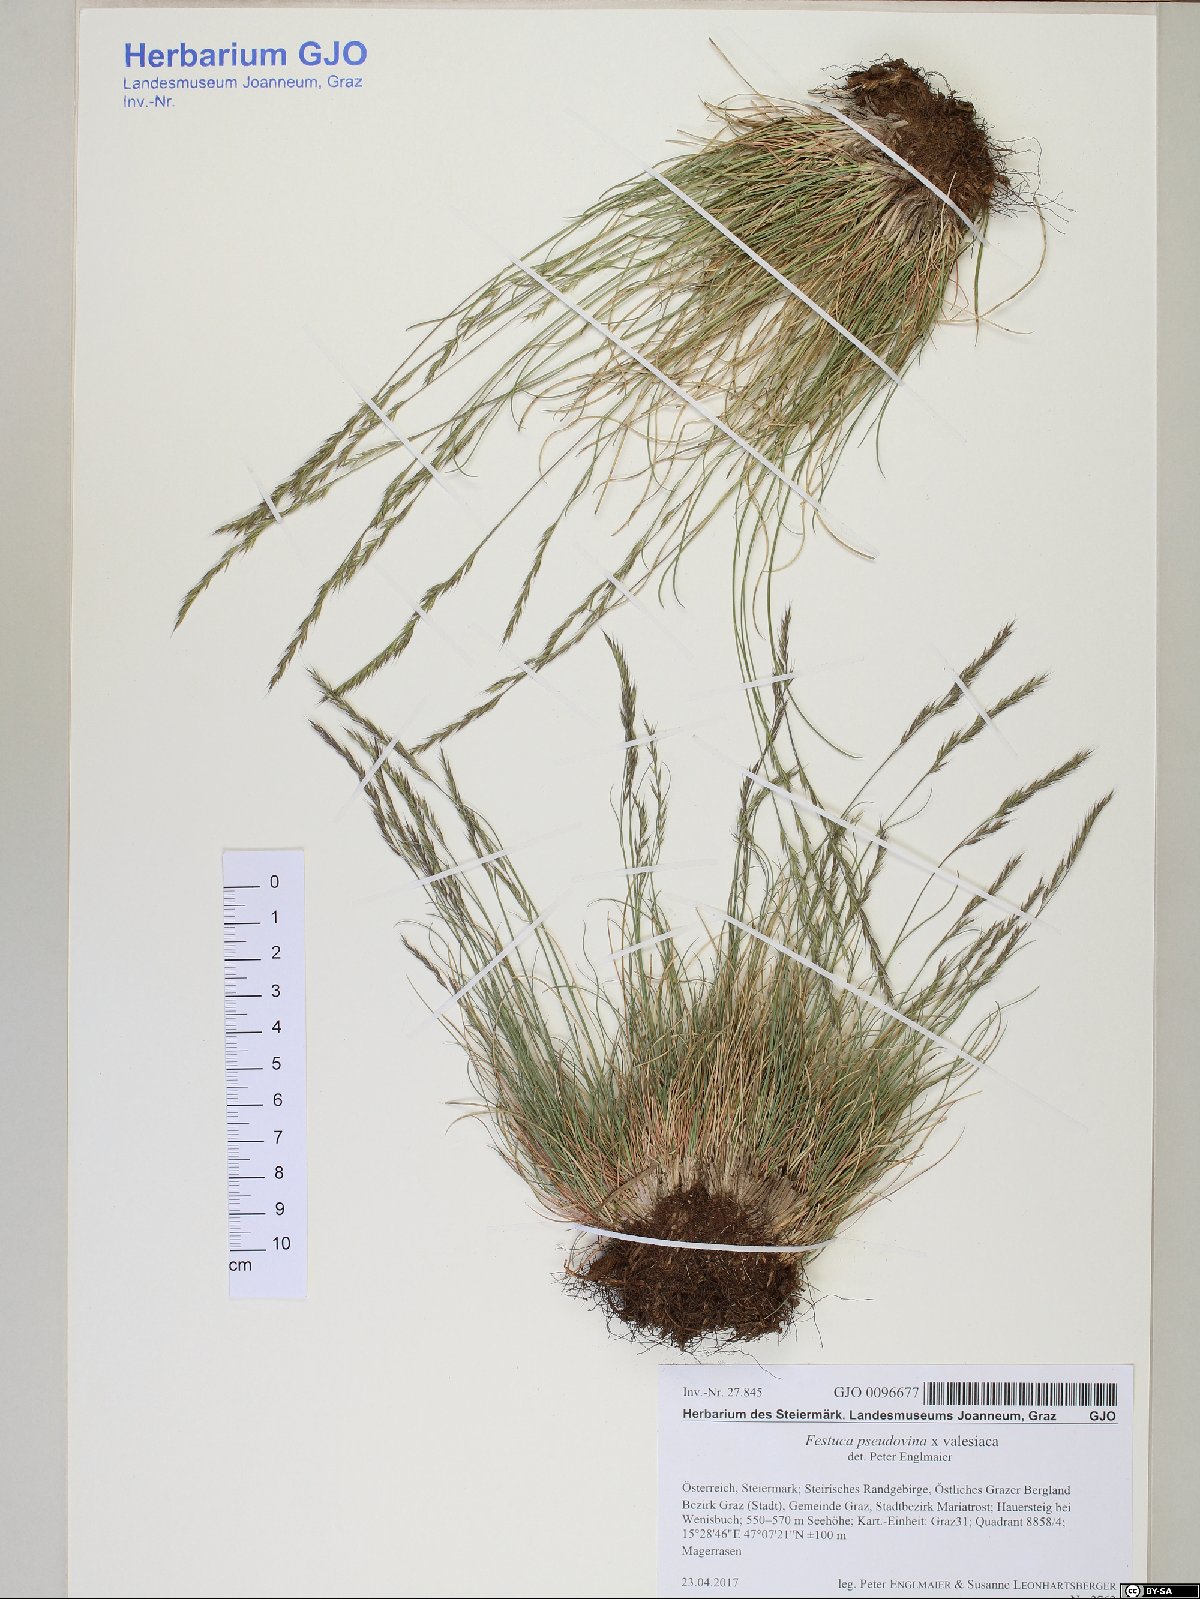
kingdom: Plantae
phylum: Tracheophyta
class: Liliopsida
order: Poales
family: Poaceae
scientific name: Poaceae
